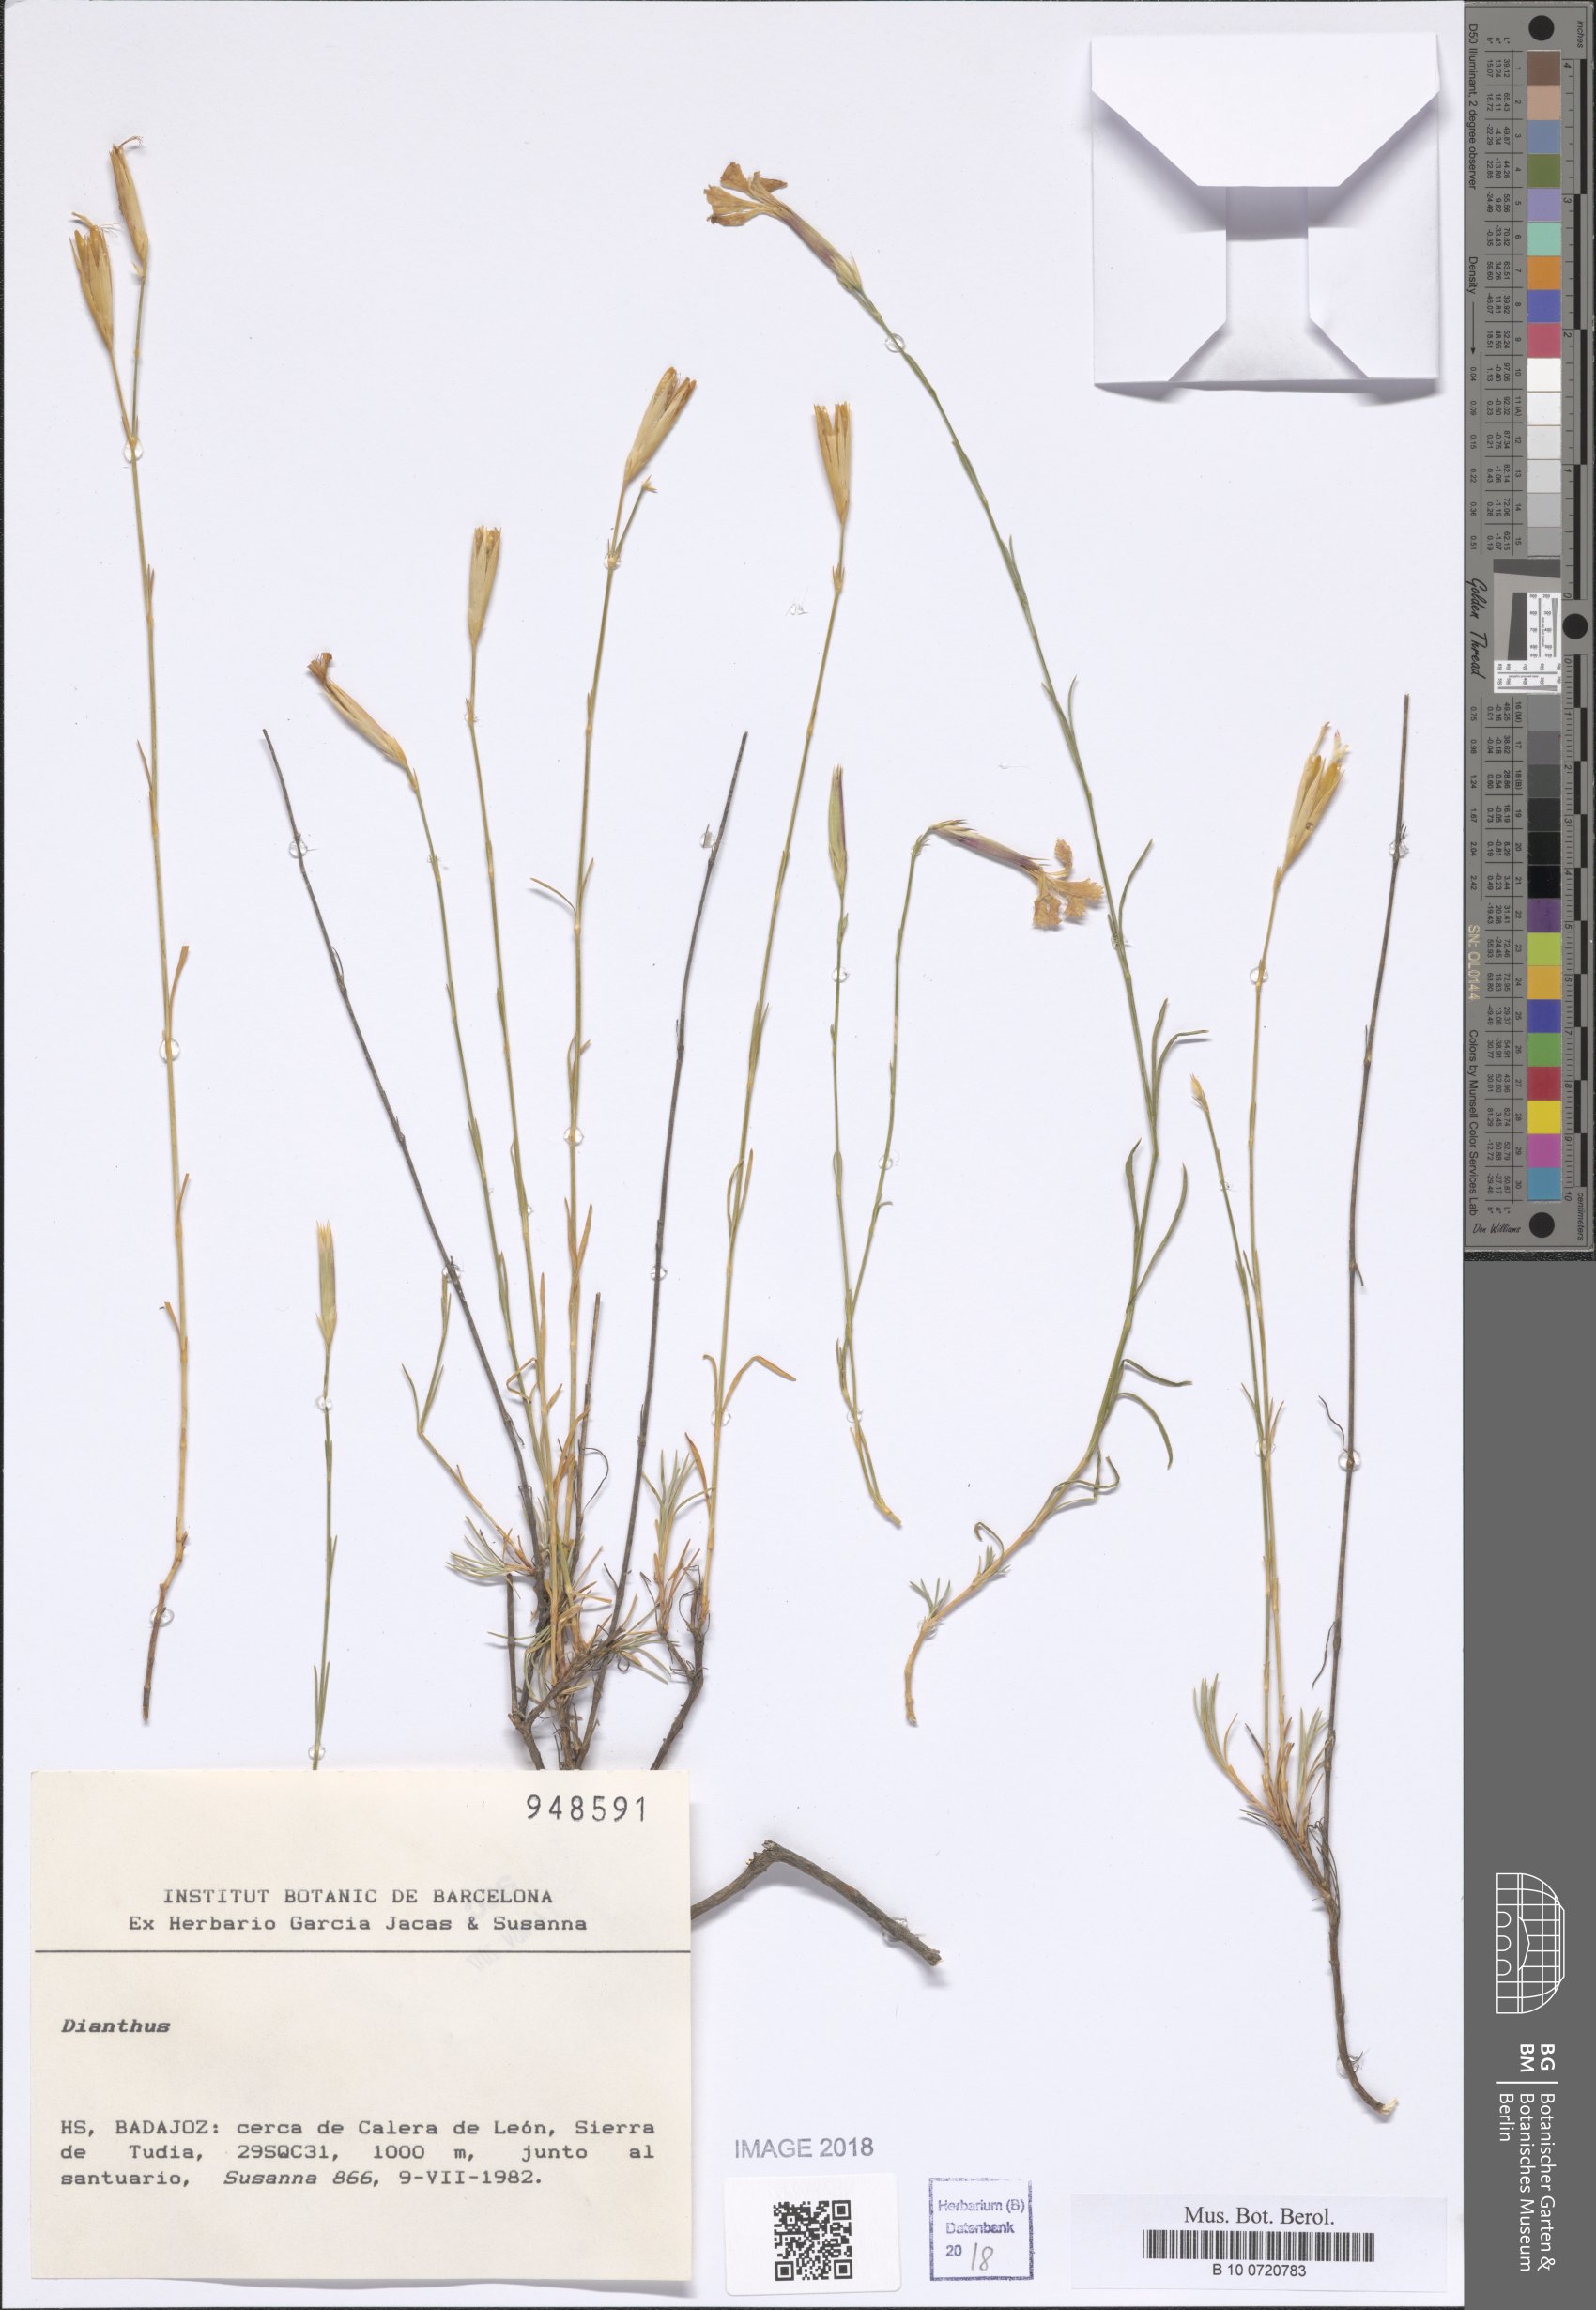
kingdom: Plantae
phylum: Tracheophyta
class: Magnoliopsida
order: Caryophyllales
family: Caryophyllaceae
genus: Dianthus
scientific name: Dianthus
